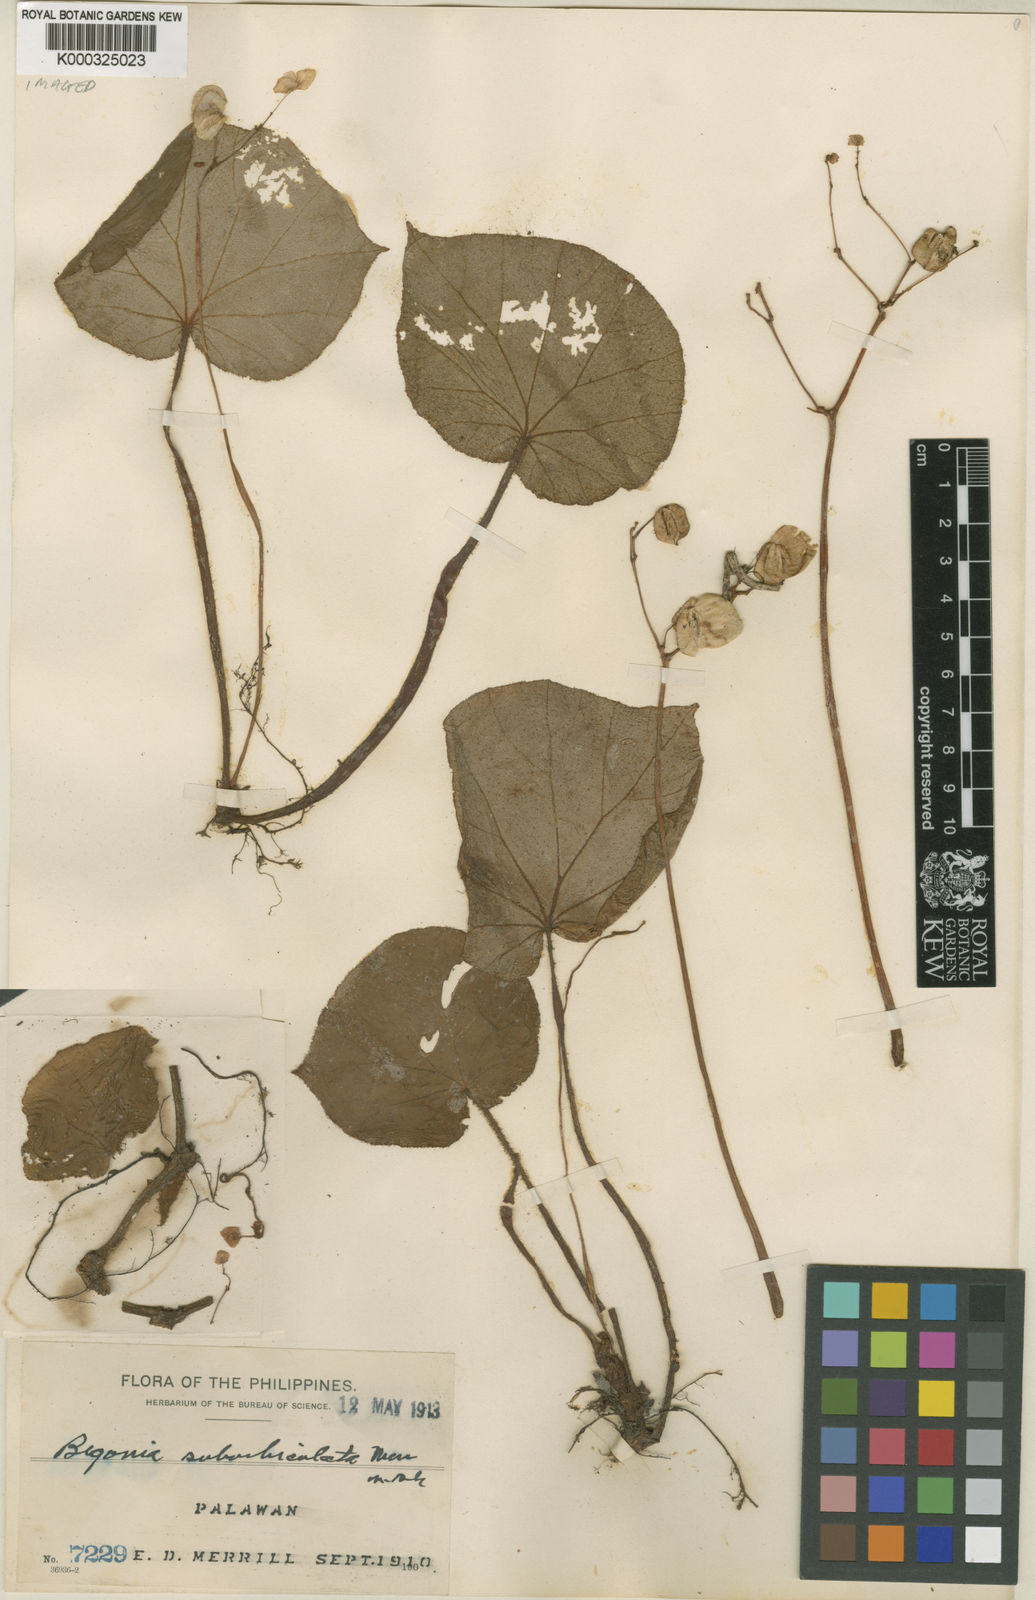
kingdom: Plantae
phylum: Tracheophyta
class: Magnoliopsida
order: Cucurbitales
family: Begoniaceae
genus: Begonia
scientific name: Begonia suborbiculata
